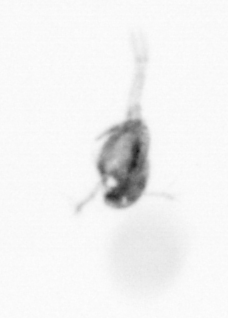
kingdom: Animalia
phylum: Arthropoda
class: Copepoda
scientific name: Copepoda
